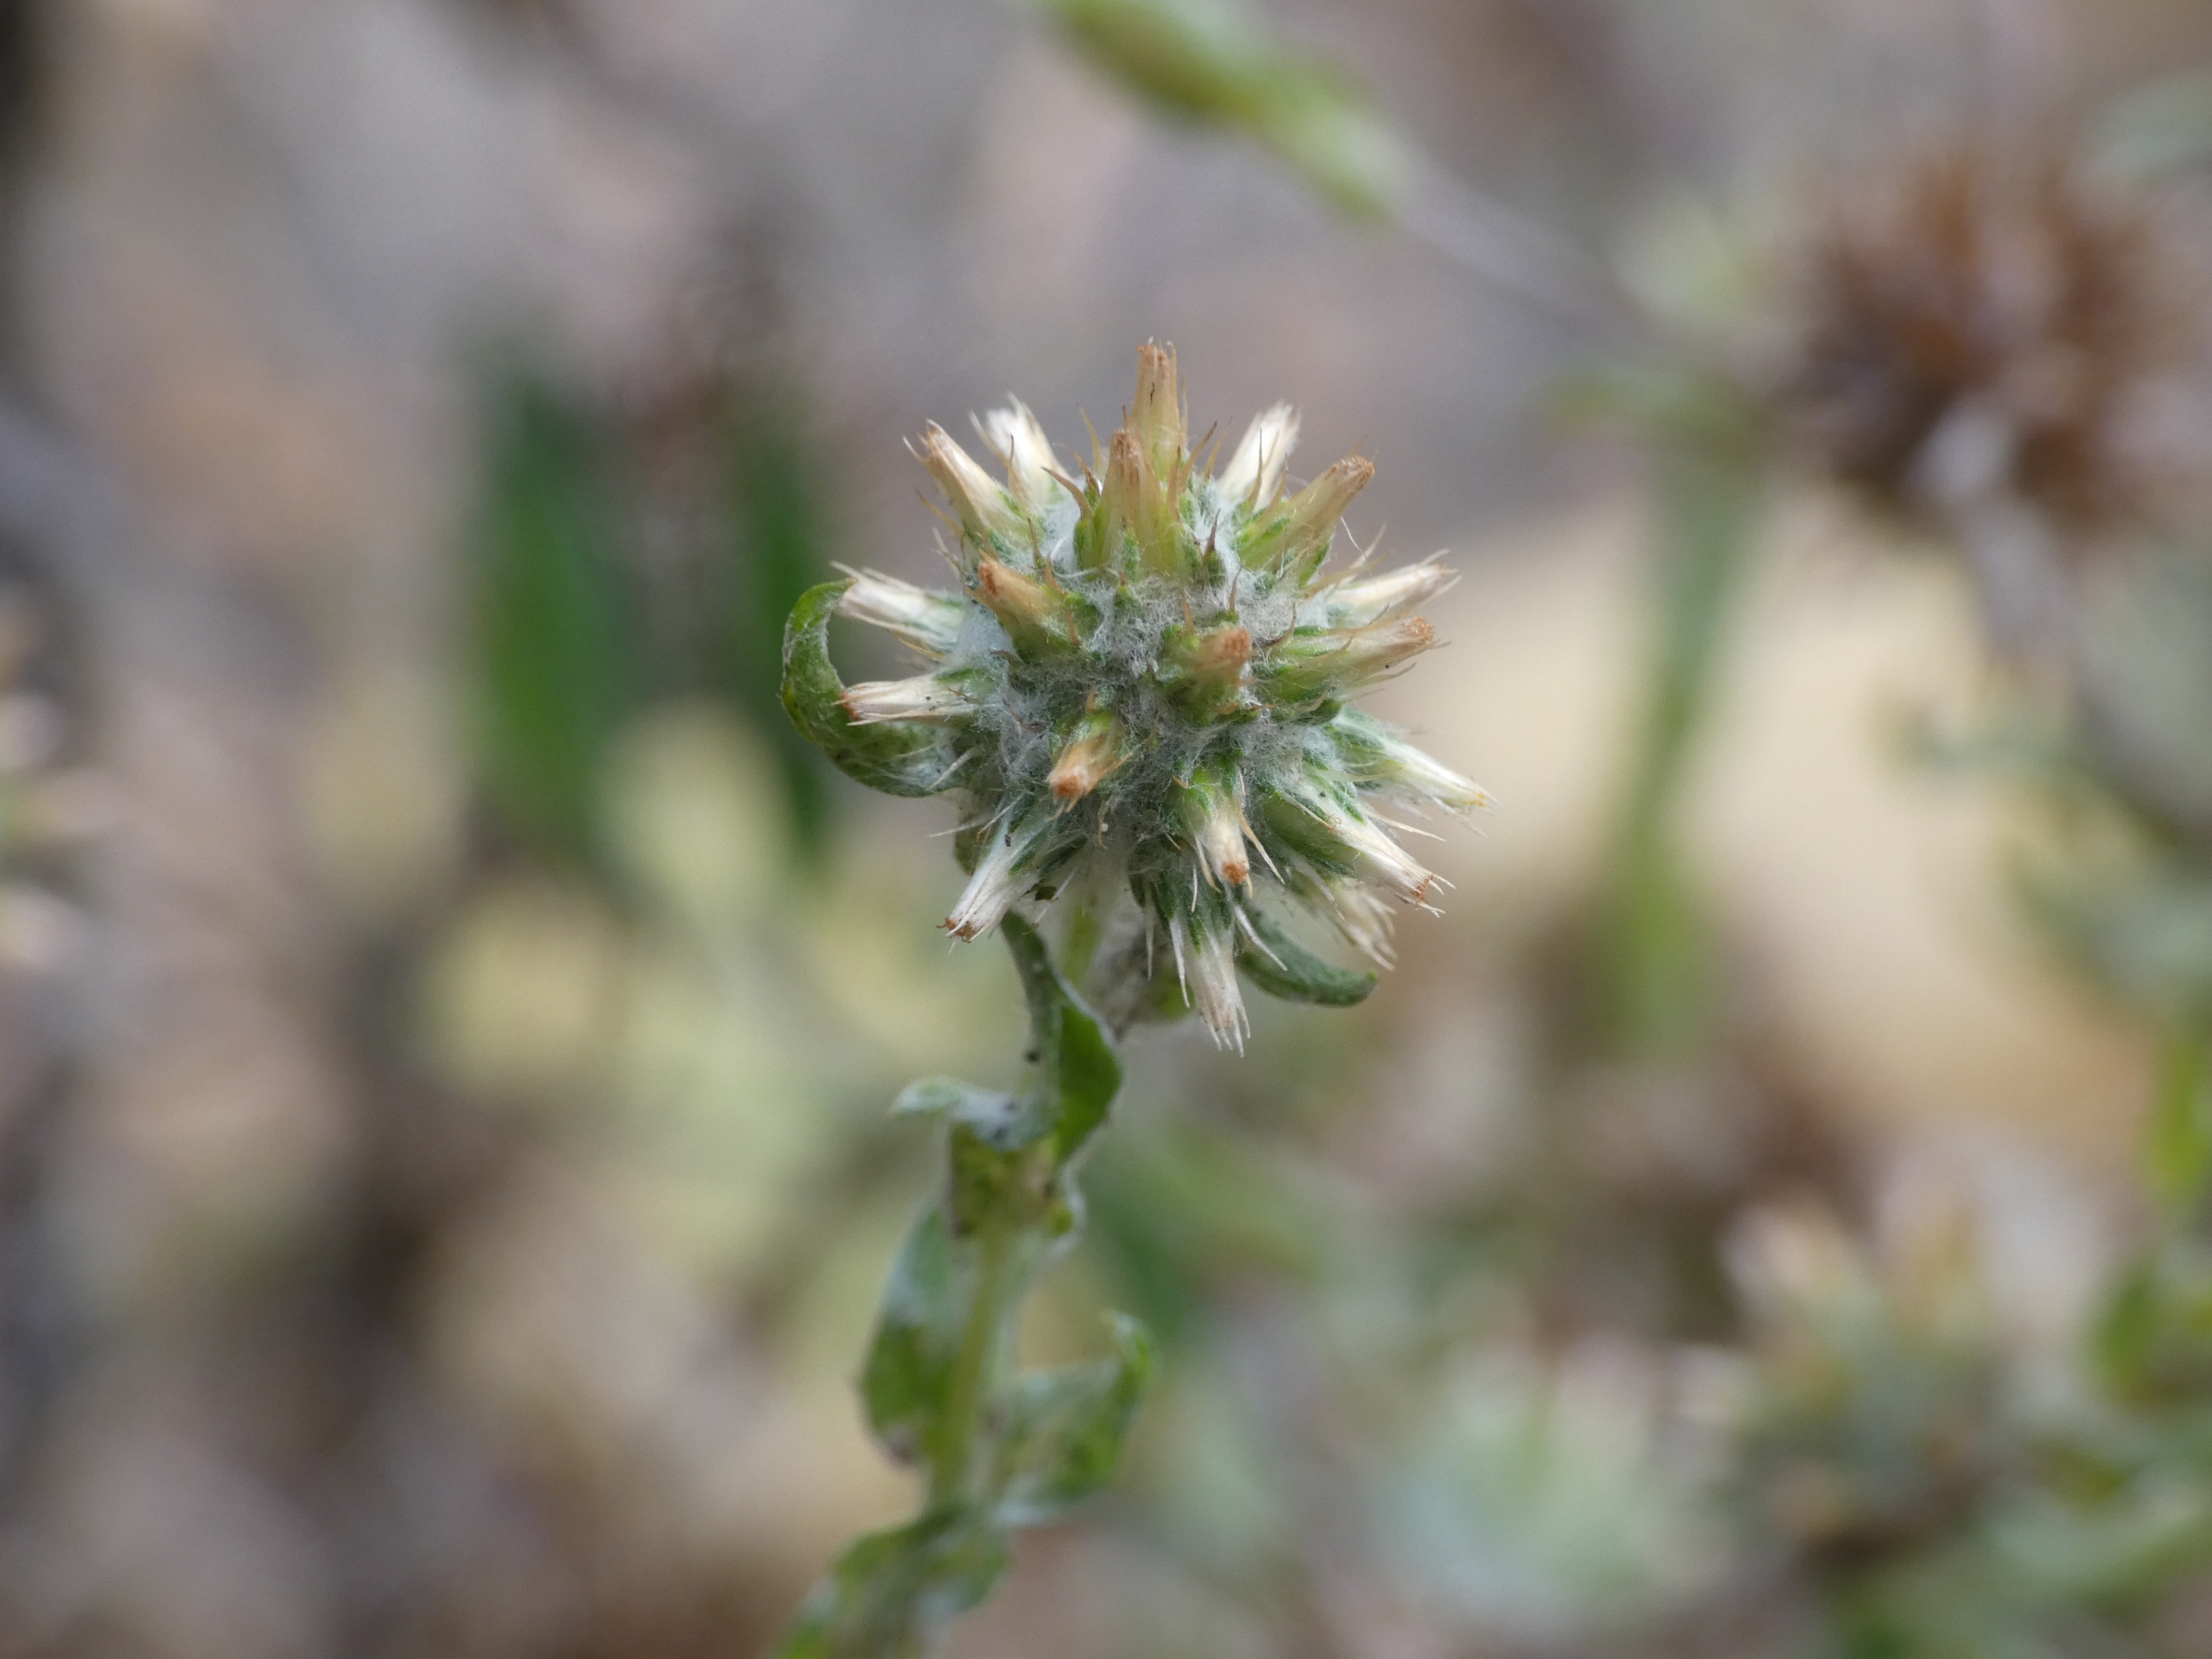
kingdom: Plantae
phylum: Tracheophyta
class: Magnoliopsida
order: Asterales
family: Asteraceae
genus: Filago
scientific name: Filago germanica
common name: Kugle-museurt
